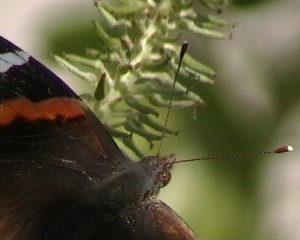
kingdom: Animalia
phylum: Arthropoda
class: Insecta
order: Lepidoptera
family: Nymphalidae
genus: Vanessa
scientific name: Vanessa atalanta
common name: Red Admiral
